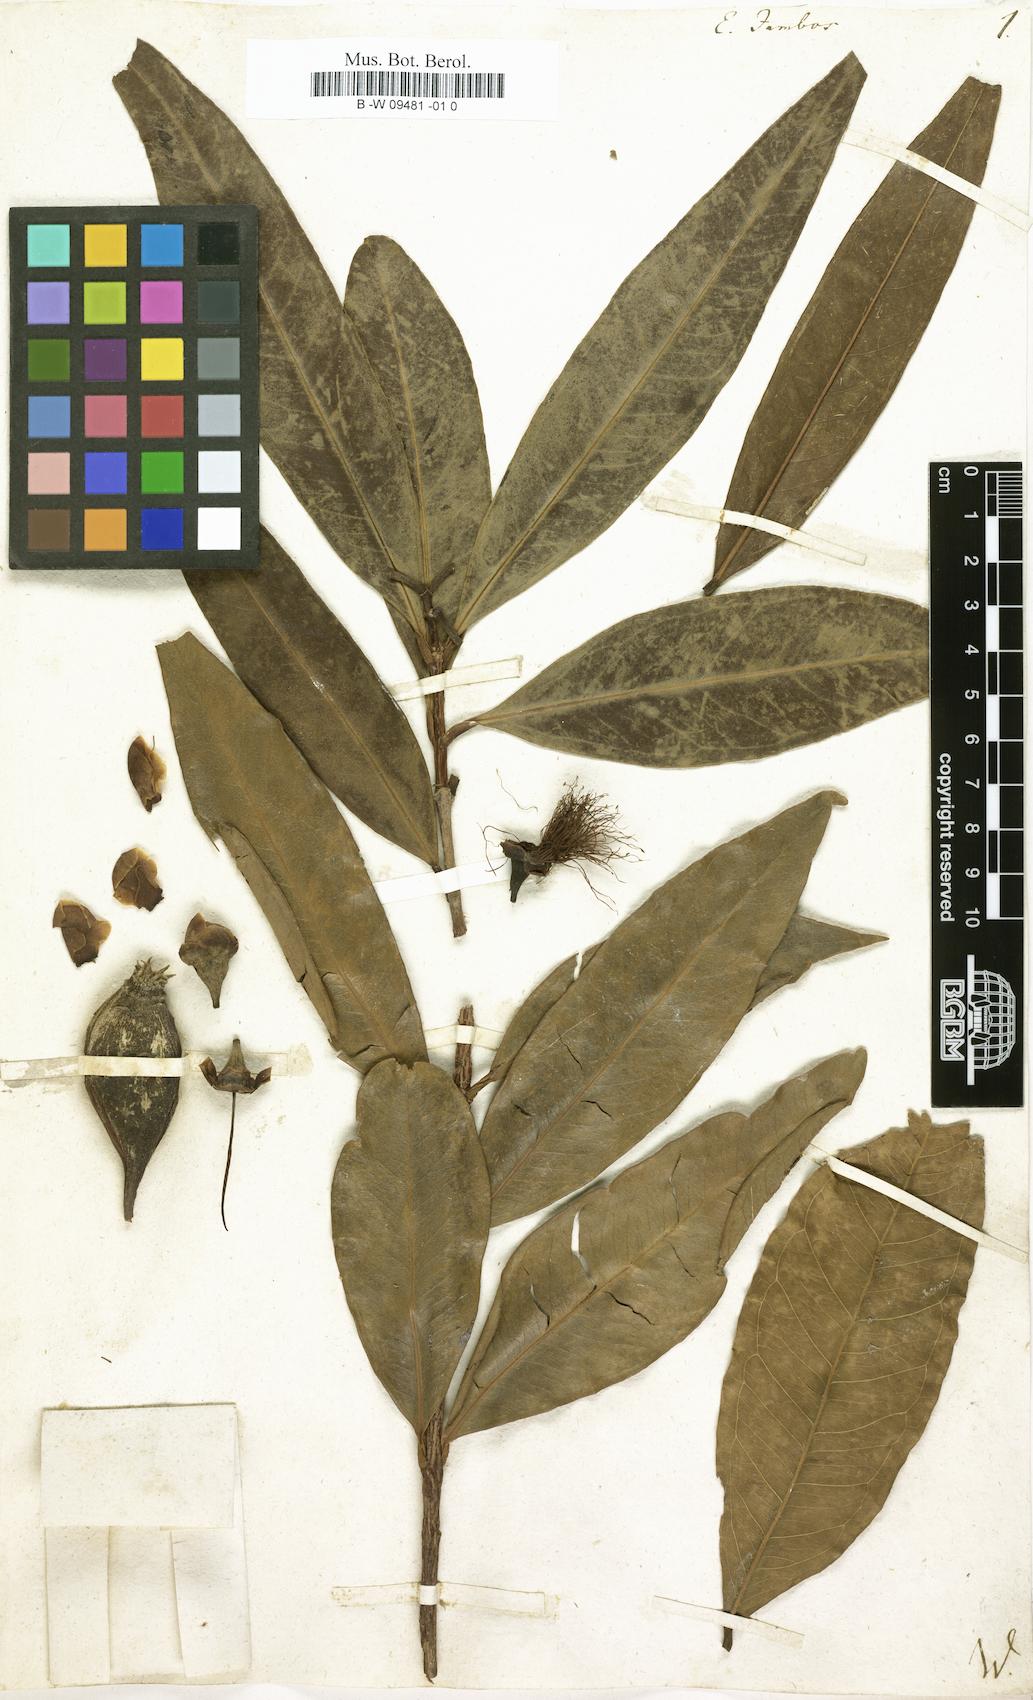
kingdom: Plantae
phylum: Tracheophyta
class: Magnoliopsida
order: Myrtales
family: Myrtaceae
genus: Syzygium
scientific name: Syzygium jambos
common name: Malabar plum
